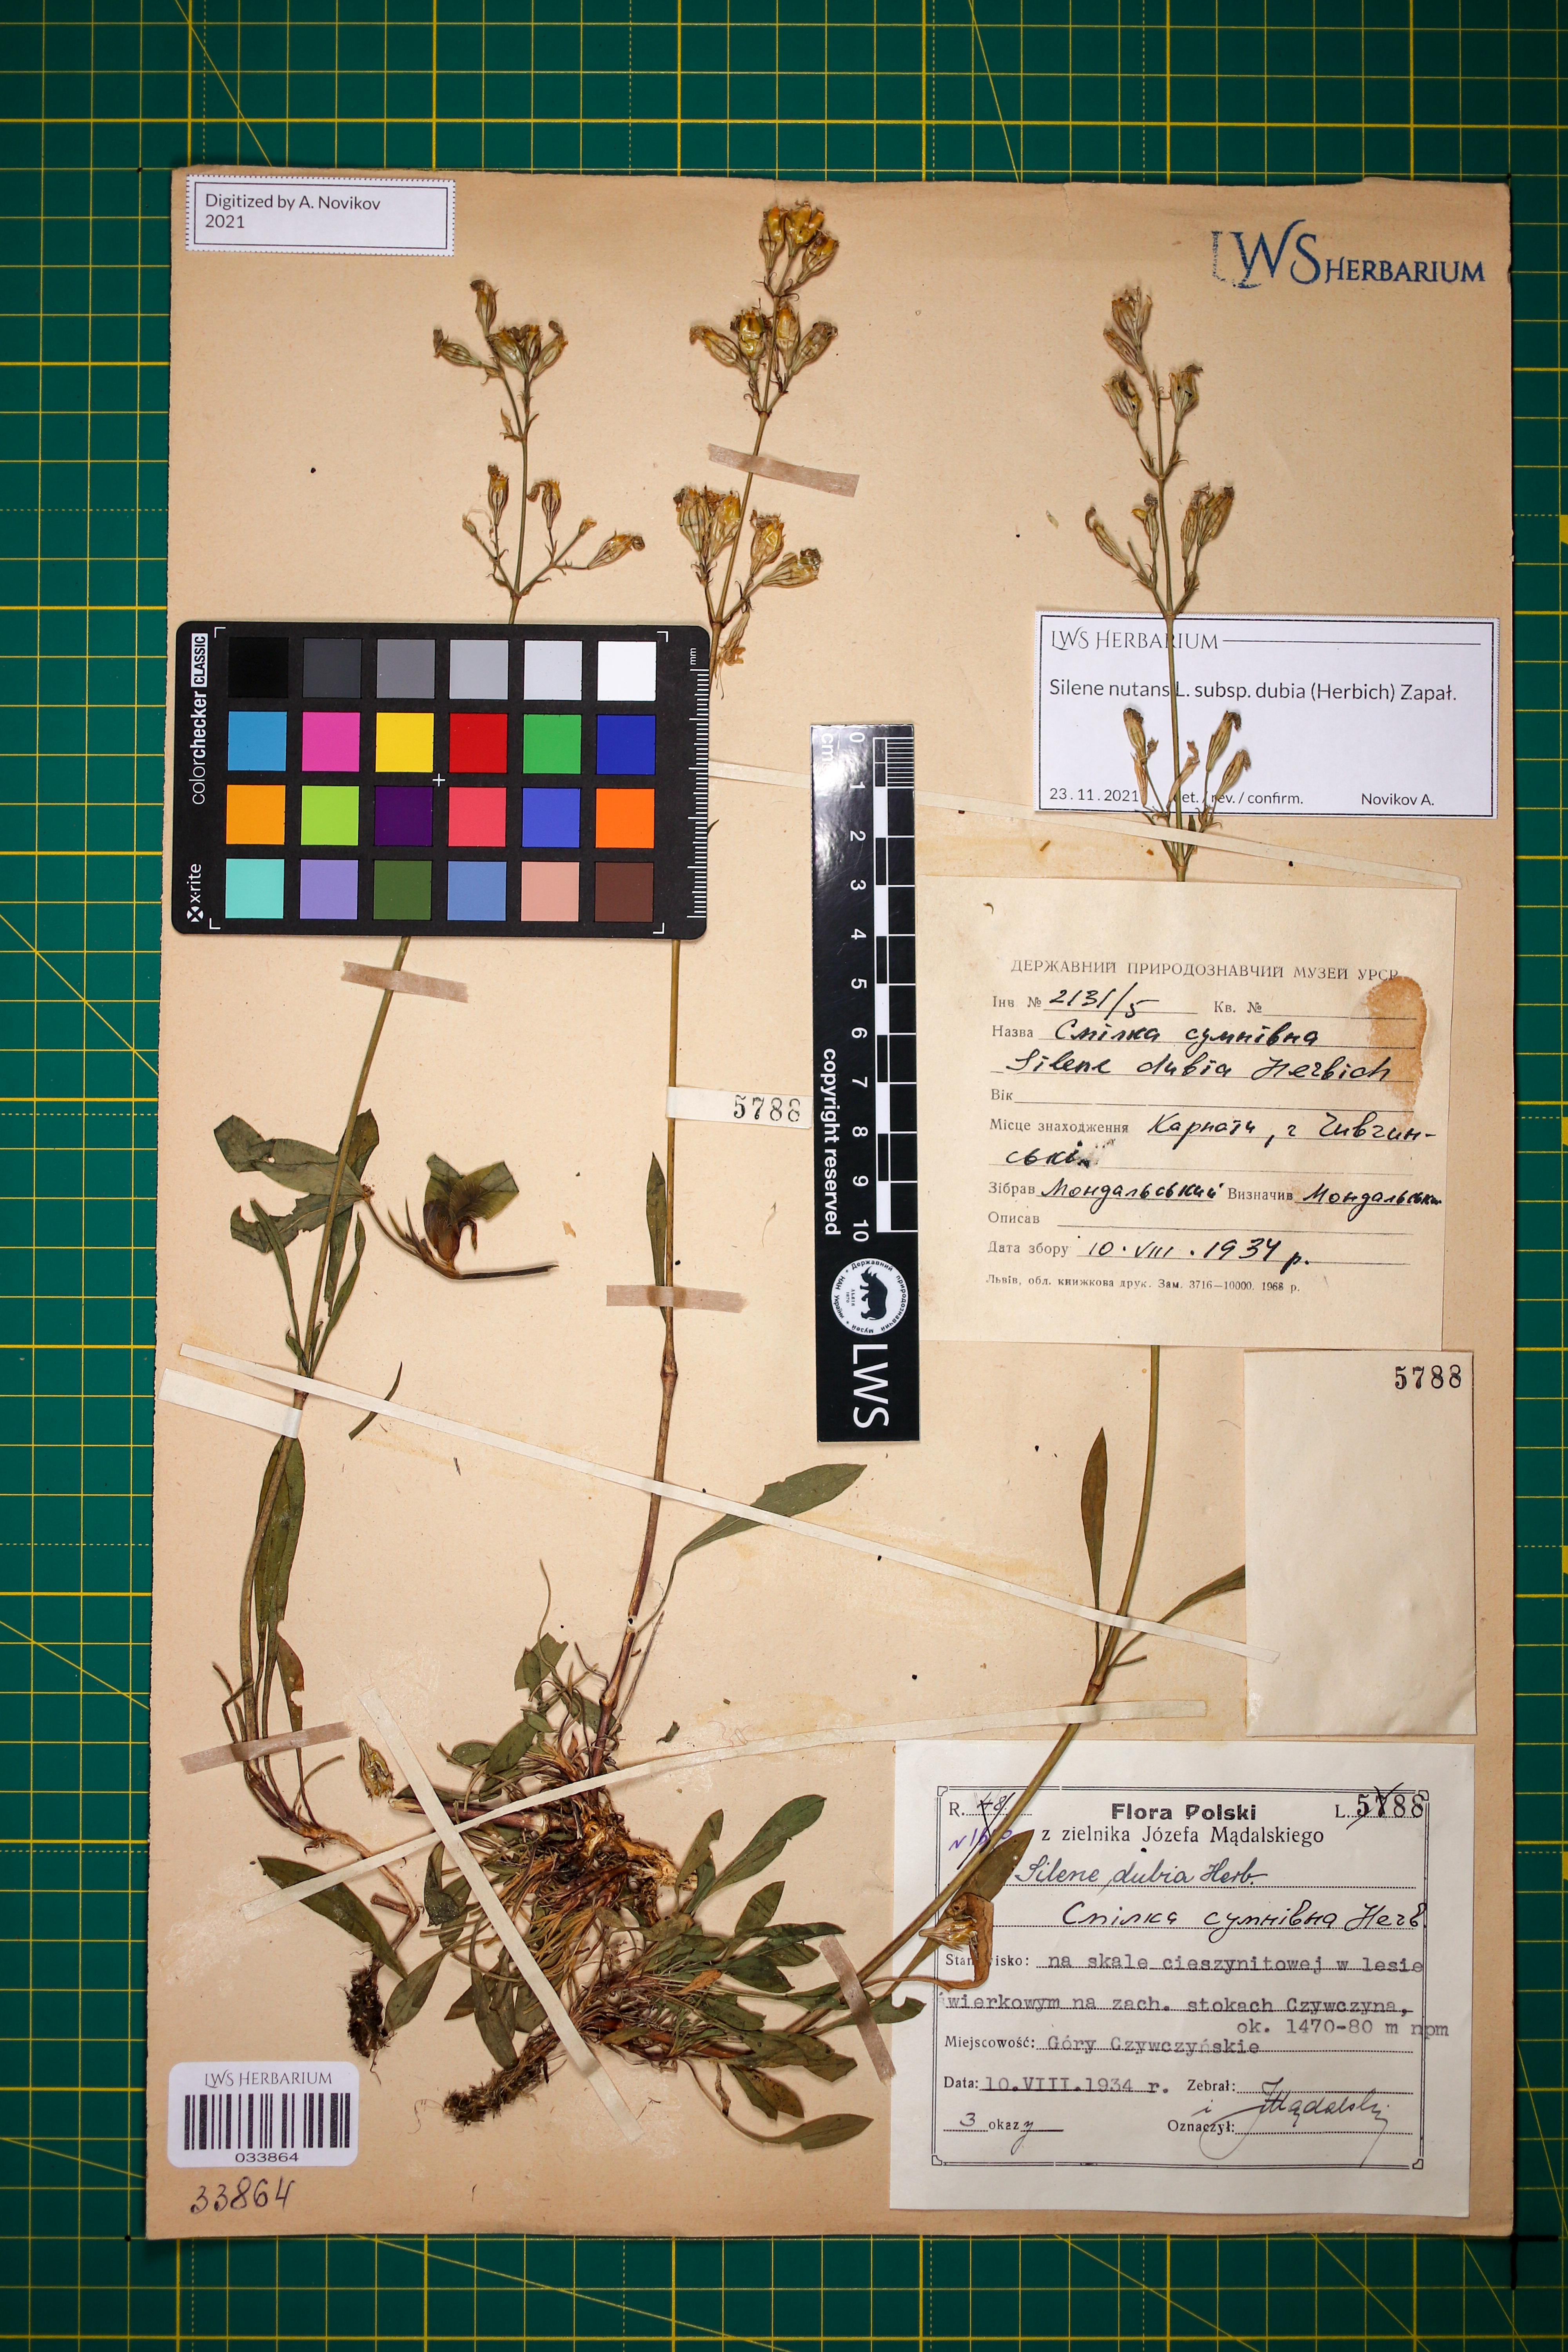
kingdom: Plantae
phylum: Tracheophyta
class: Magnoliopsida
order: Caryophyllales
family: Caryophyllaceae
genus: Silene
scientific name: Silene nutans
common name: Nottingham catchfly
